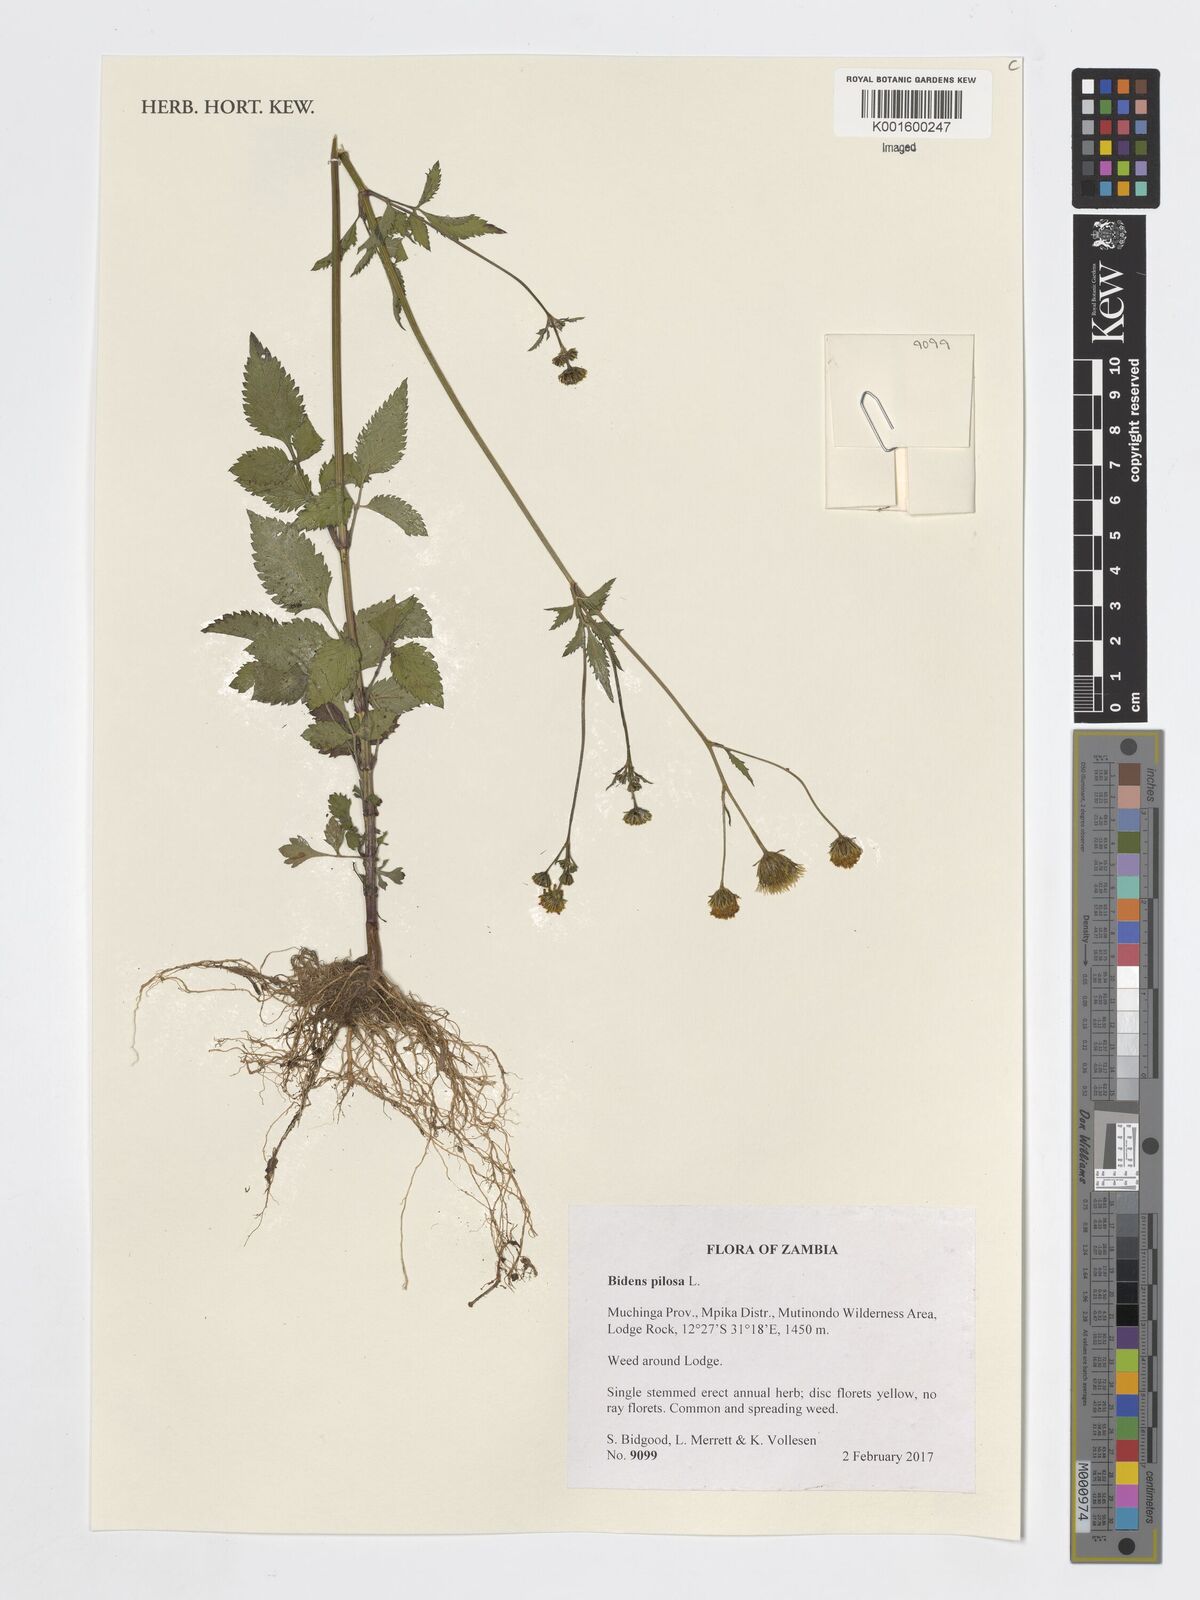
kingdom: Plantae
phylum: Tracheophyta
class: Magnoliopsida
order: Asterales
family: Asteraceae
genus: Bidens
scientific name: Bidens pilosa
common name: Black-jack
